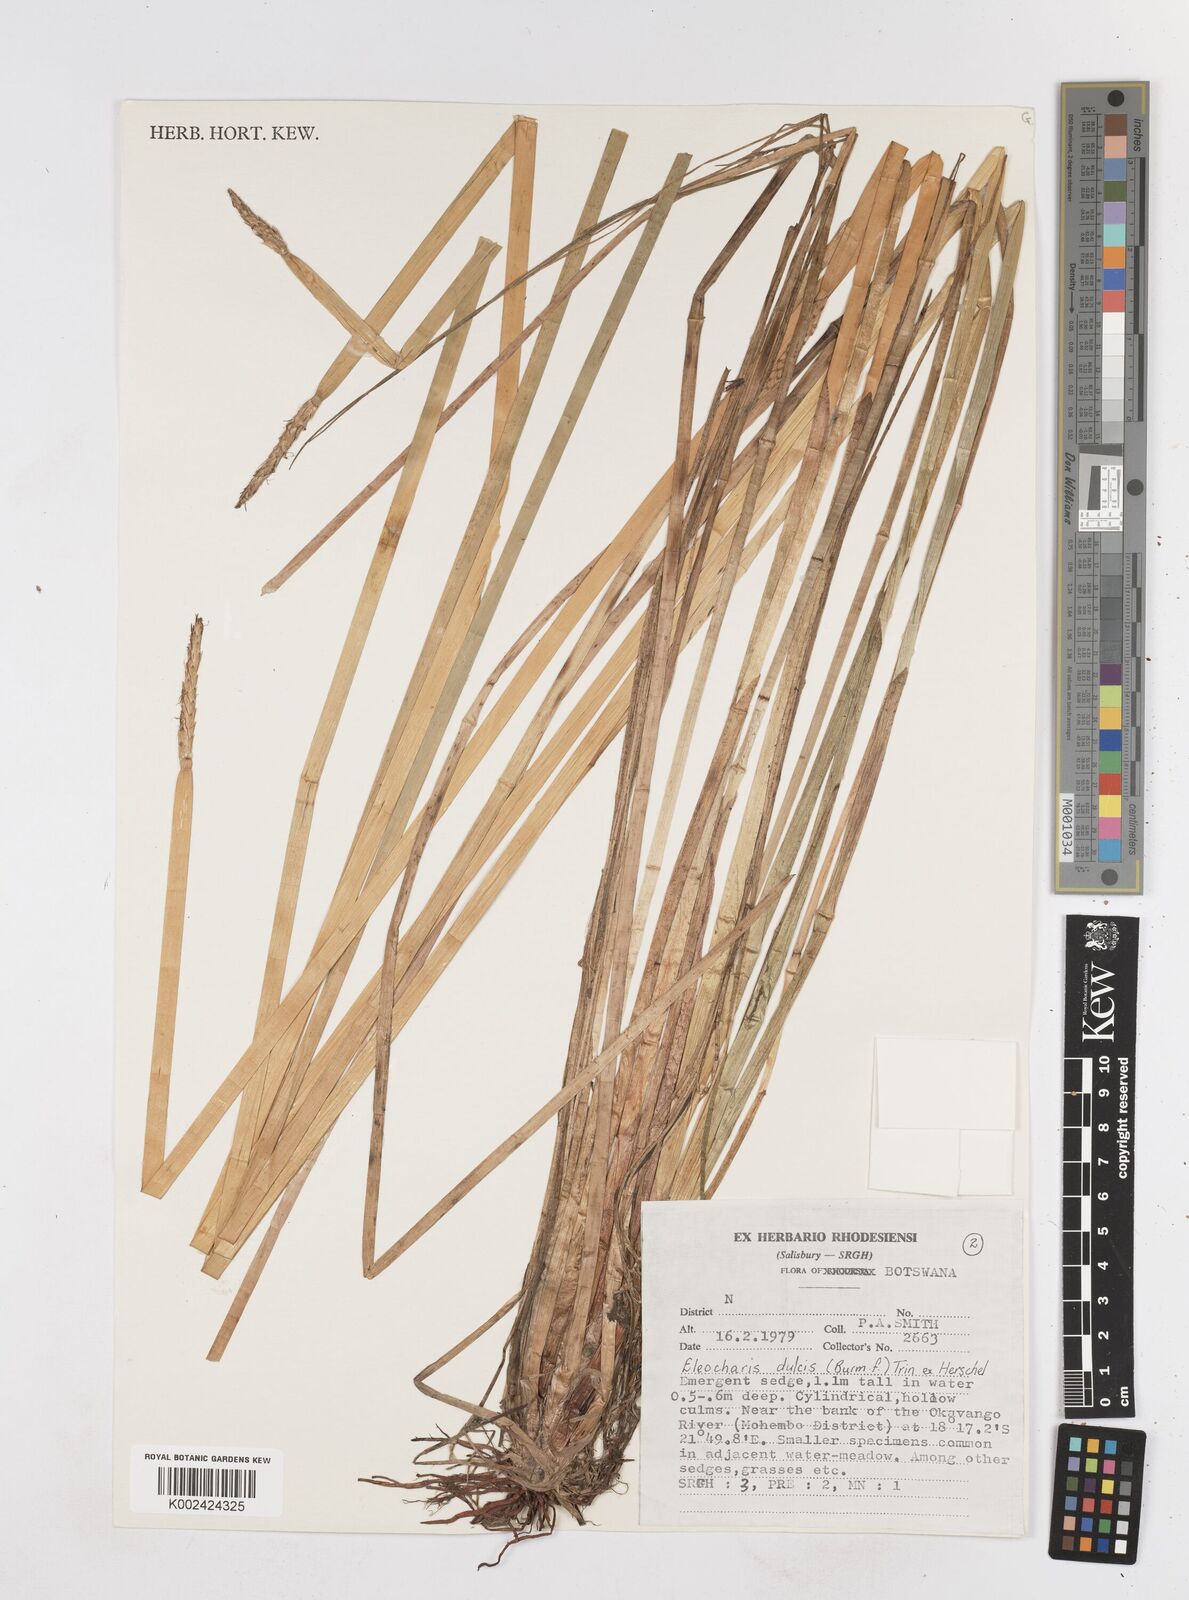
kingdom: Plantae
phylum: Tracheophyta
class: Liliopsida
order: Poales
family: Cyperaceae
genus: Eleocharis
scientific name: Eleocharis dulcis
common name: Chinese water chestnut
